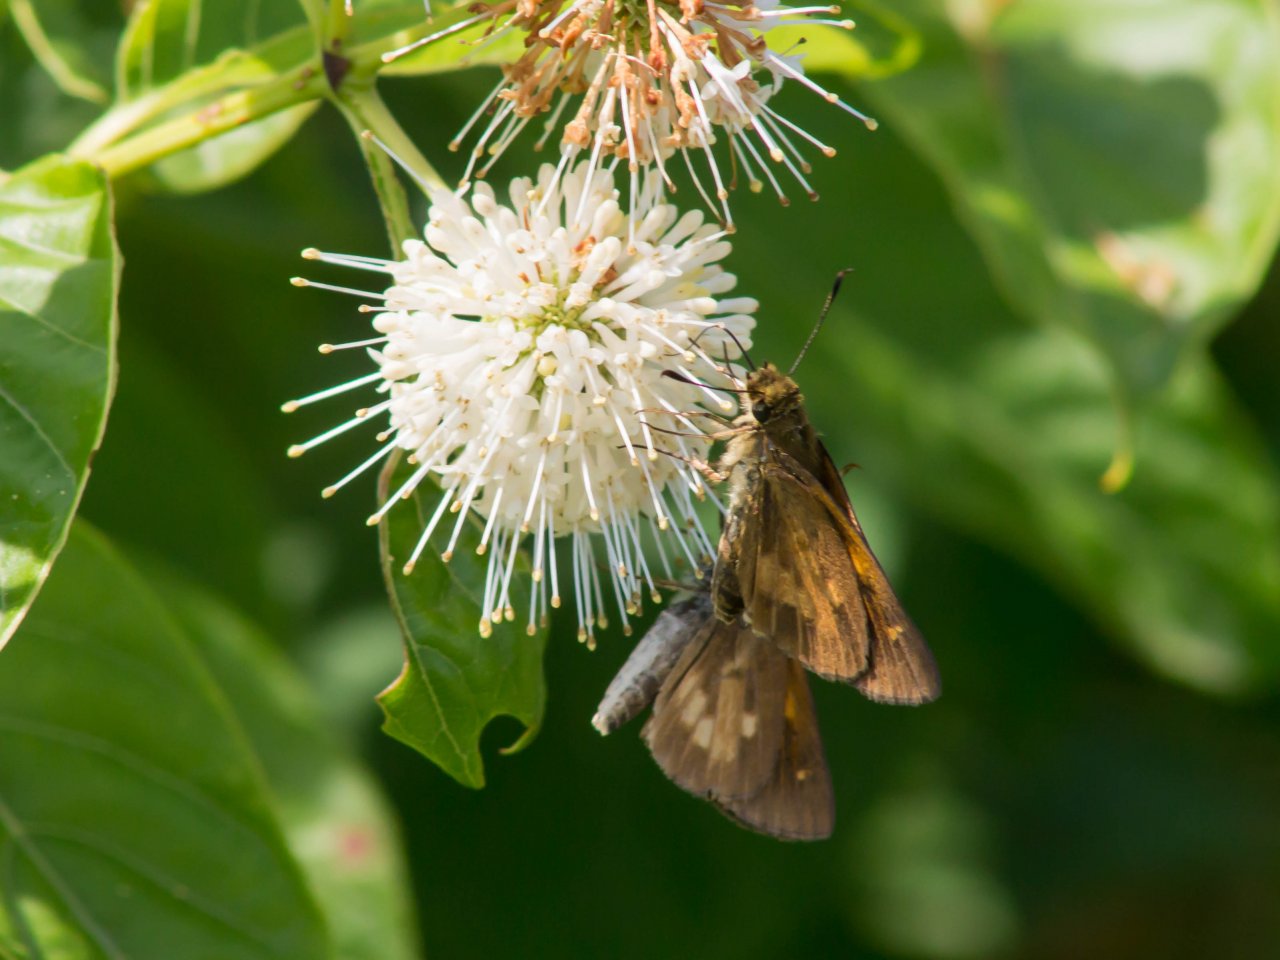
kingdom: Animalia
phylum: Arthropoda
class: Insecta
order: Lepidoptera
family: Hesperiidae
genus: Poanes
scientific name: Poanes viator
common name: Broad-winged Skipper
